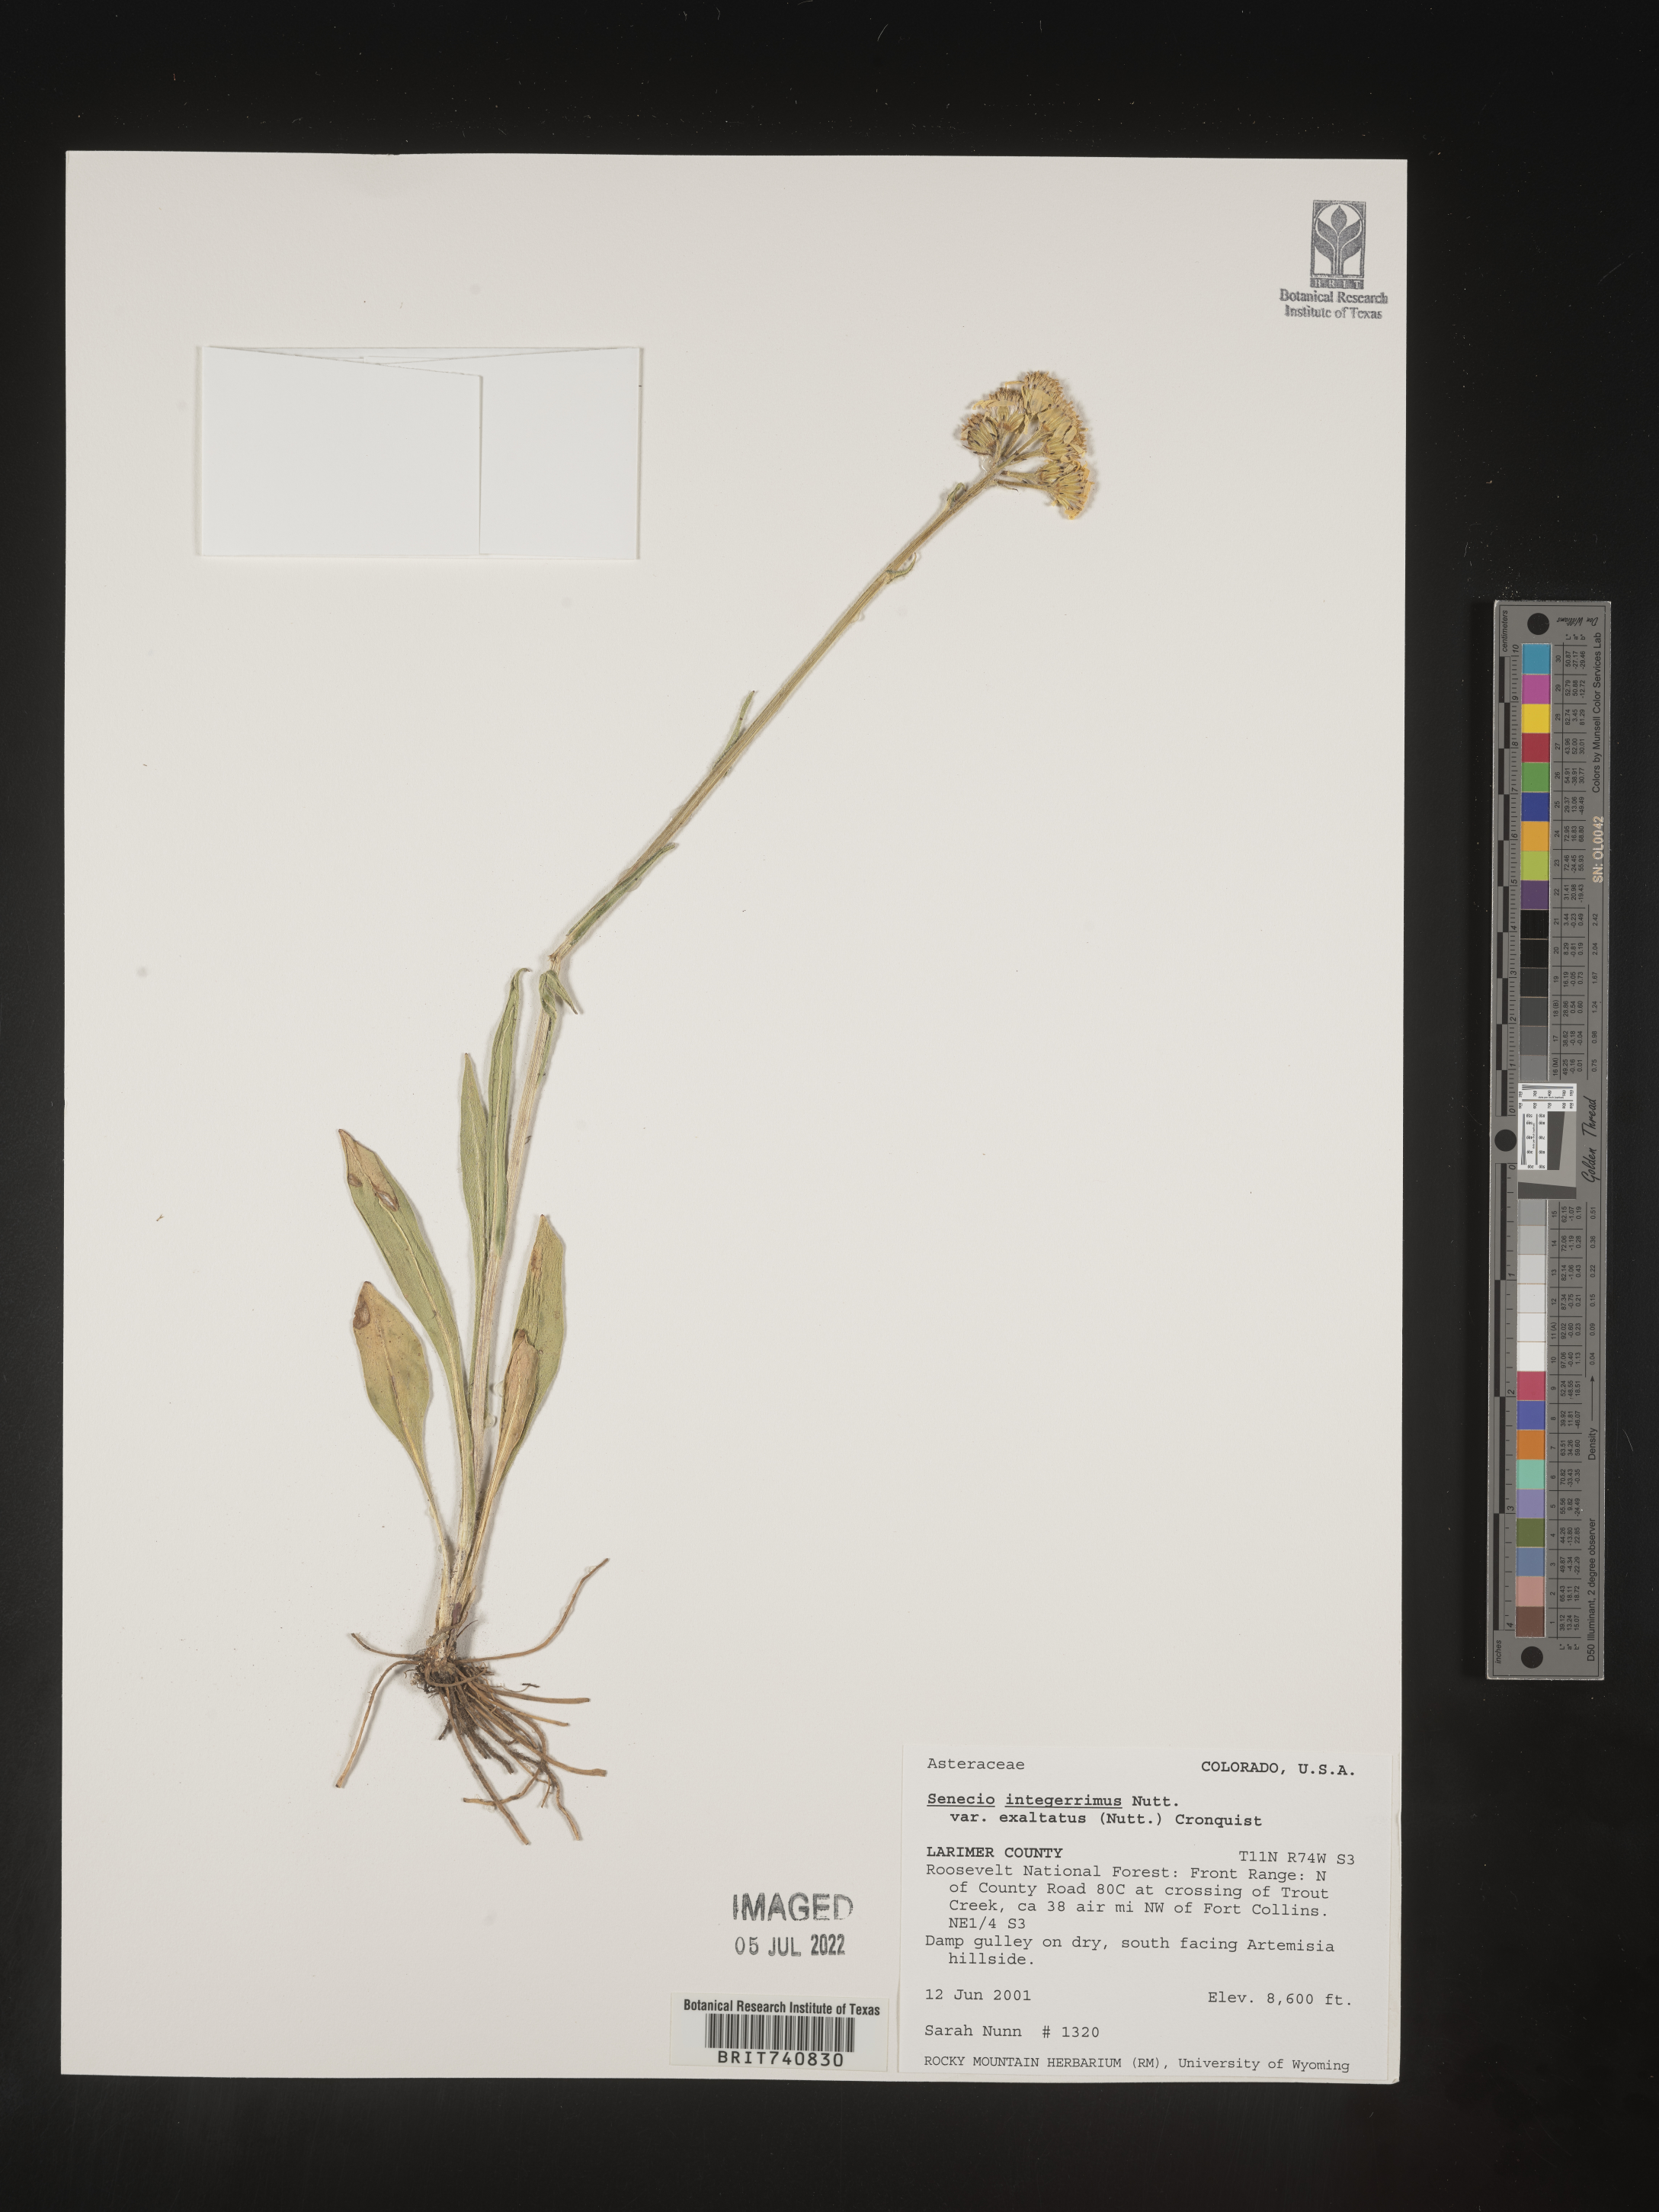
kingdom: Plantae
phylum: Tracheophyta
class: Magnoliopsida
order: Asterales
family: Asteraceae
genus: Senecio
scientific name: Senecio integerrimus
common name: Gaugeplant
